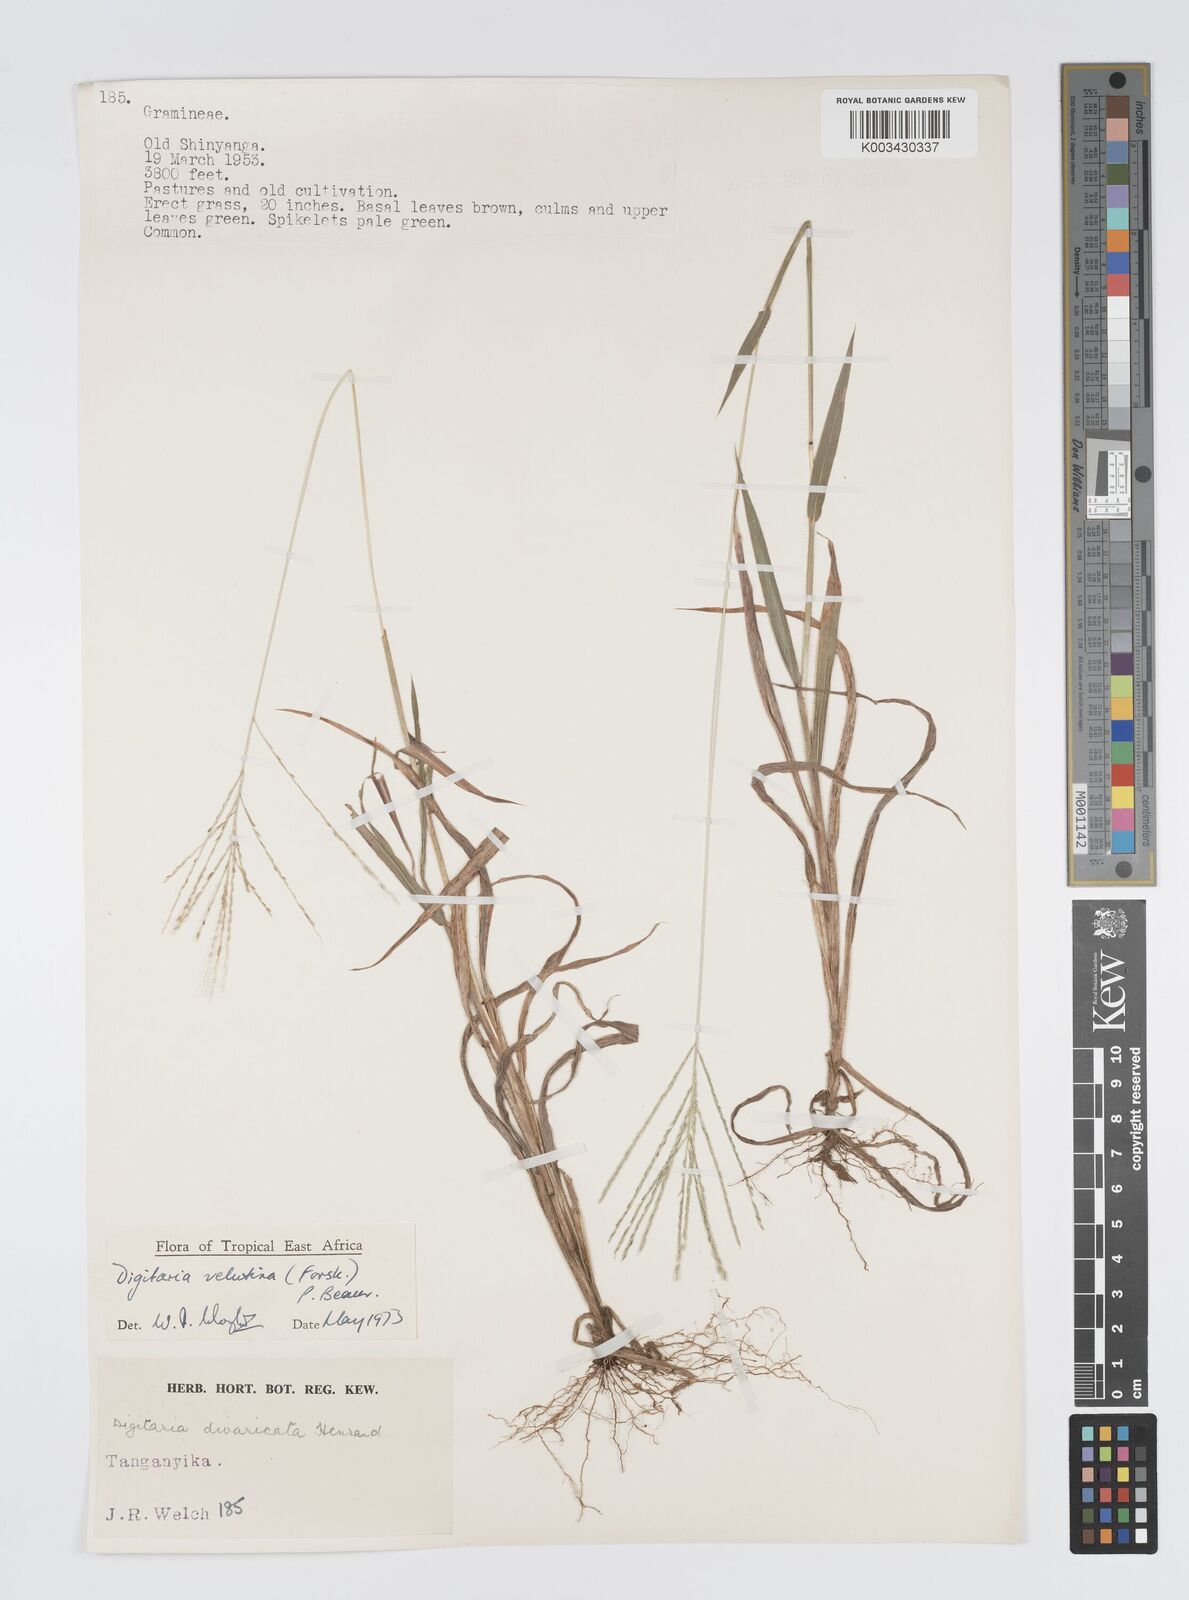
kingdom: Plantae
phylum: Tracheophyta
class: Liliopsida
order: Poales
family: Poaceae
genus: Digitaria
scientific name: Digitaria velutina
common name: Long-plume finger grass
